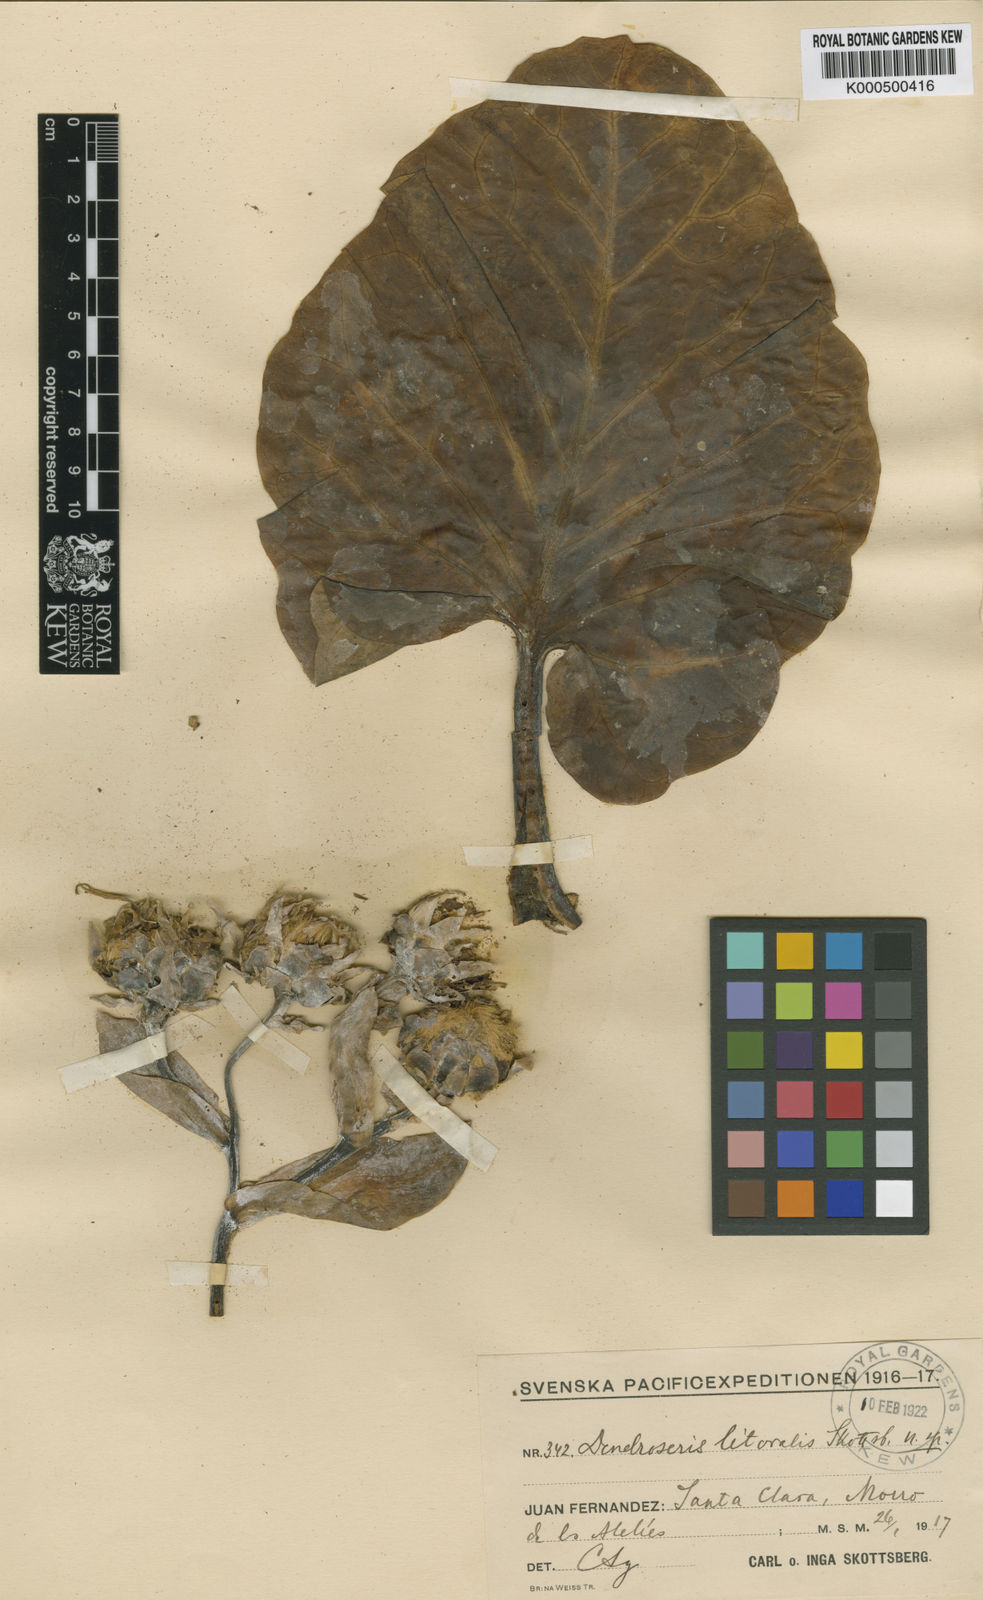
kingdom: Plantae
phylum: Tracheophyta
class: Magnoliopsida
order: Asterales
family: Asteraceae
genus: Sonchus
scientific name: Sonchus brassicifolius
